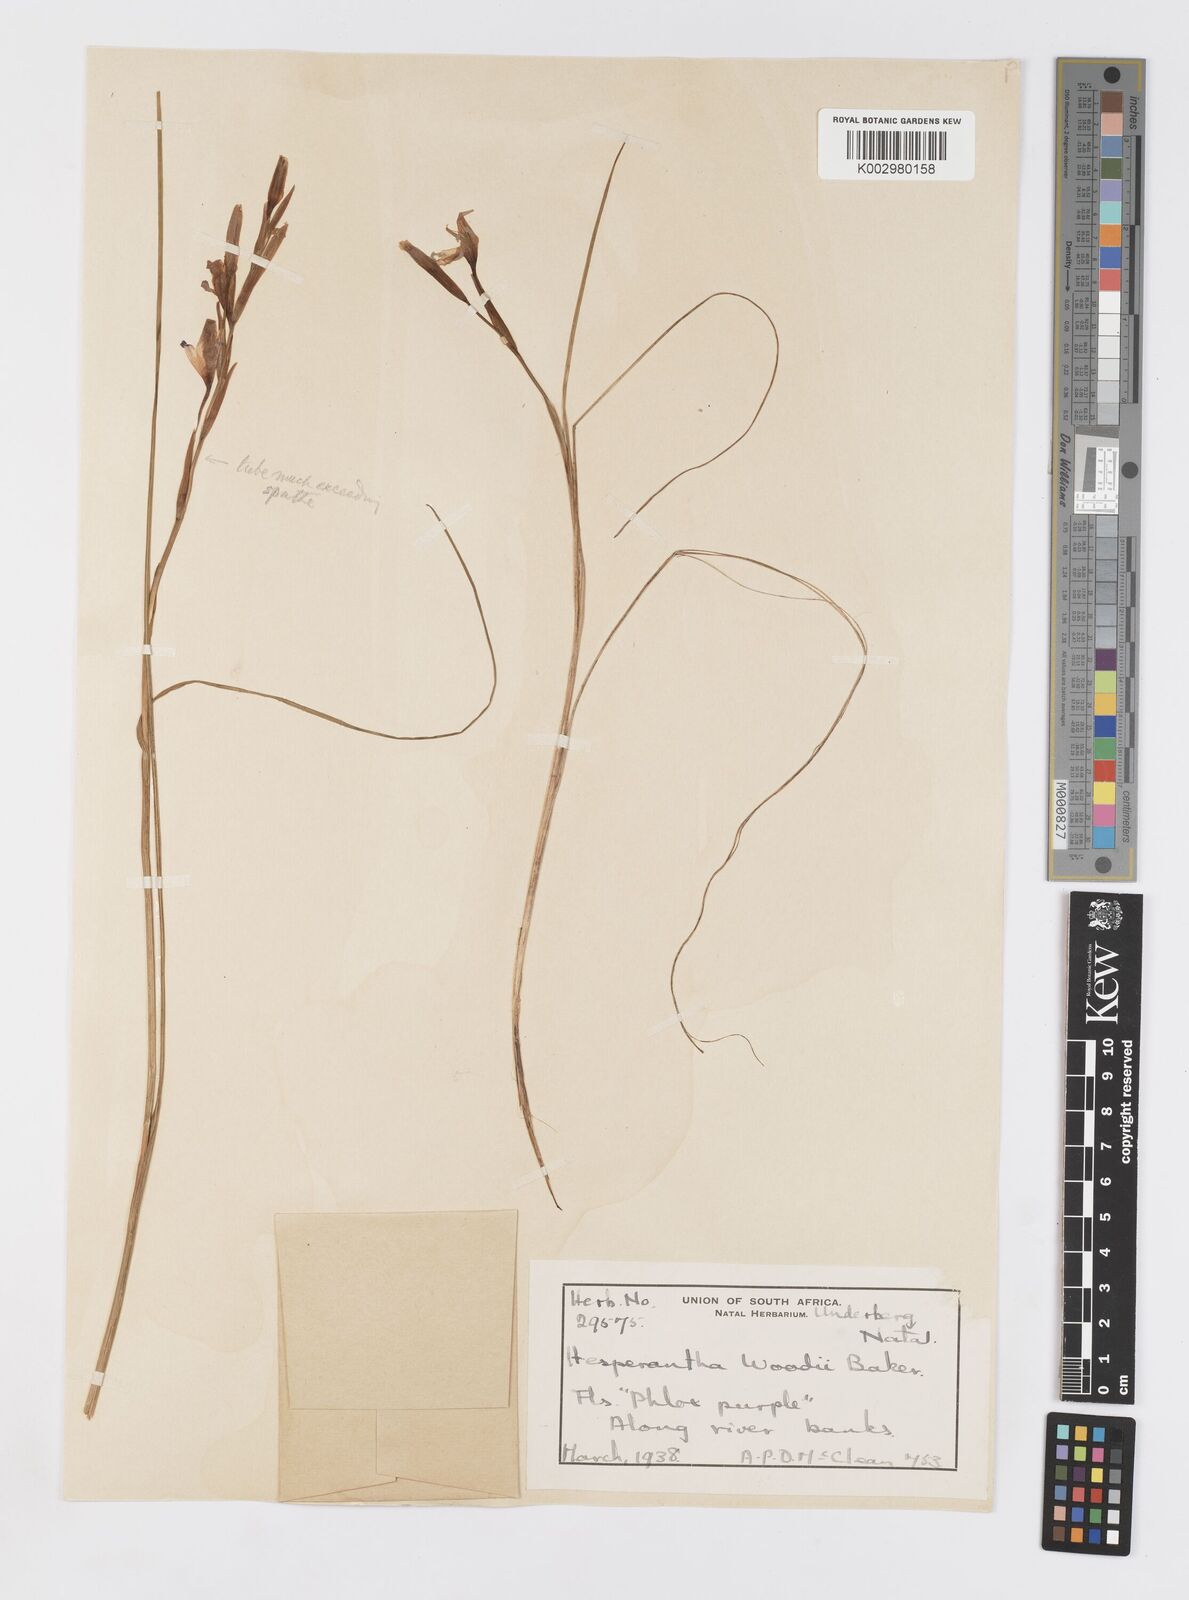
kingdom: Plantae
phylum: Tracheophyta
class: Liliopsida
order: Asparagales
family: Iridaceae
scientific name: Iridaceae
